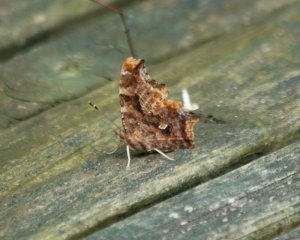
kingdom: Animalia
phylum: Arthropoda
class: Insecta
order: Lepidoptera
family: Nymphalidae
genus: Polygonia
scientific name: Polygonia comma
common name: Eastern Comma
